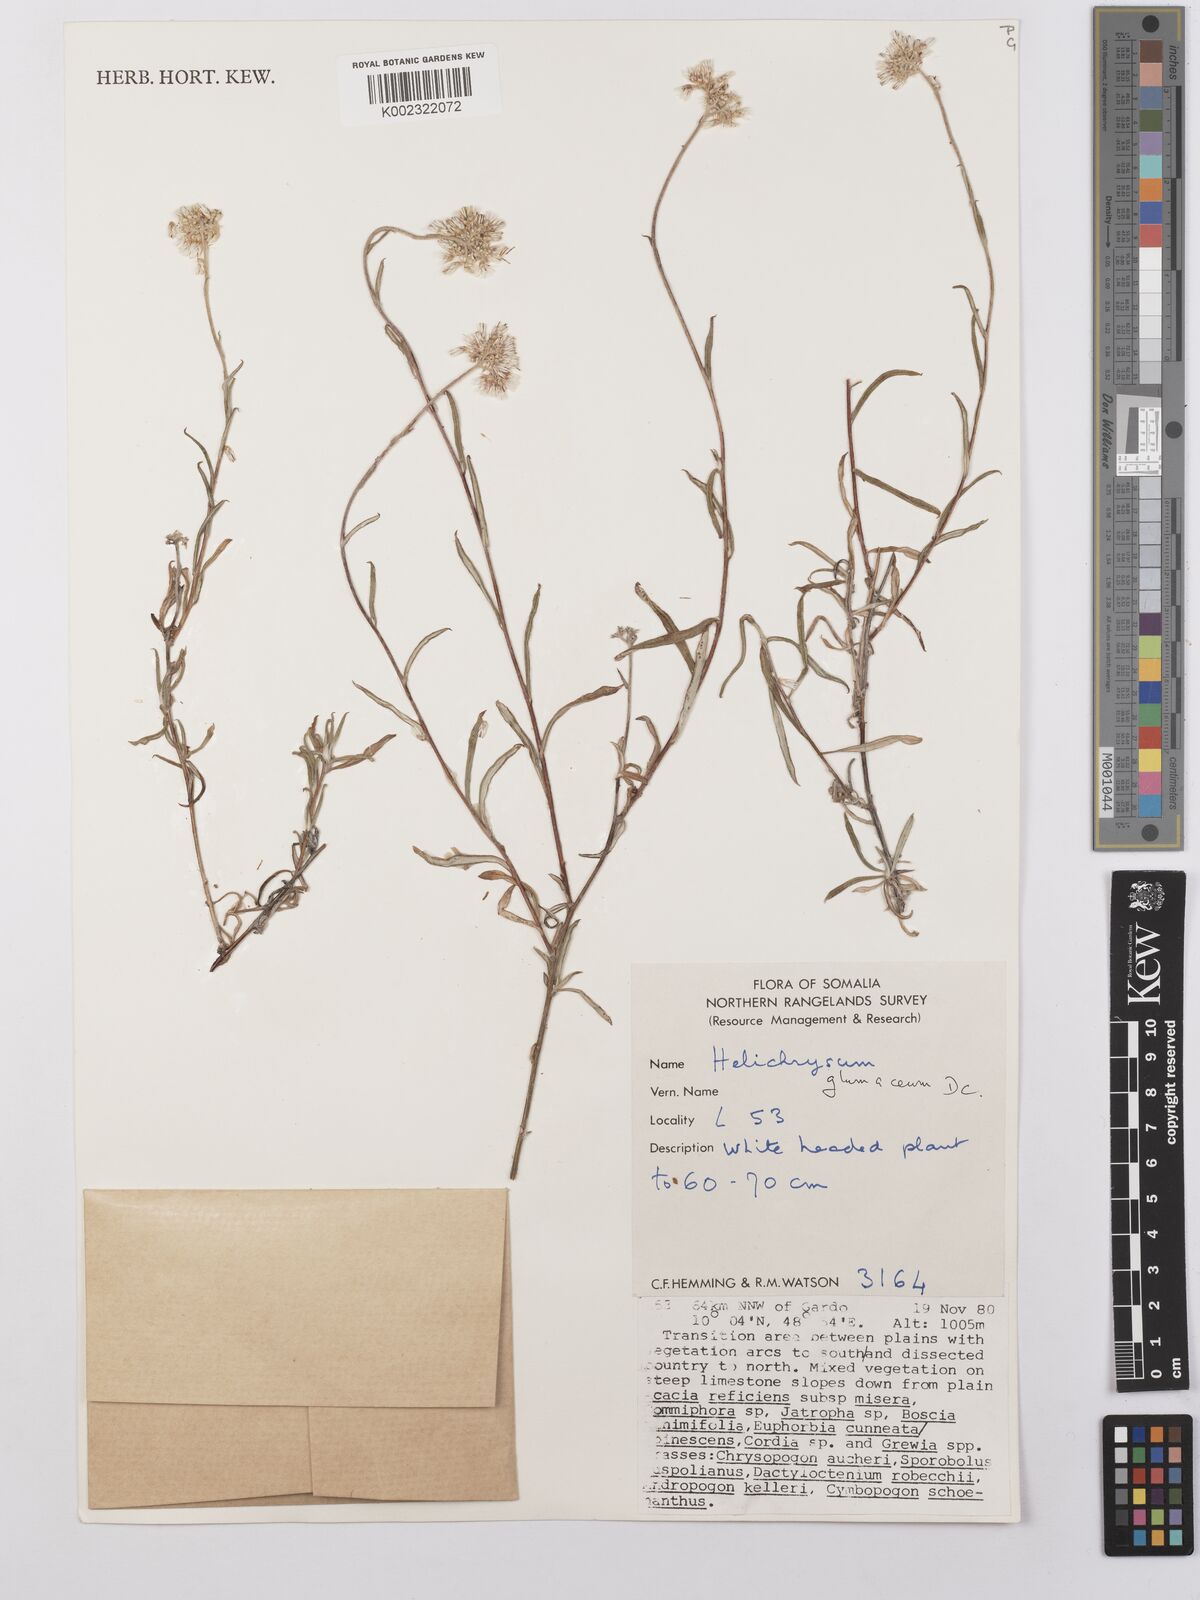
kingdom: Plantae
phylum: Tracheophyta
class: Magnoliopsida
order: Asterales
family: Asteraceae
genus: Helichrysum
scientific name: Helichrysum glumaceum
